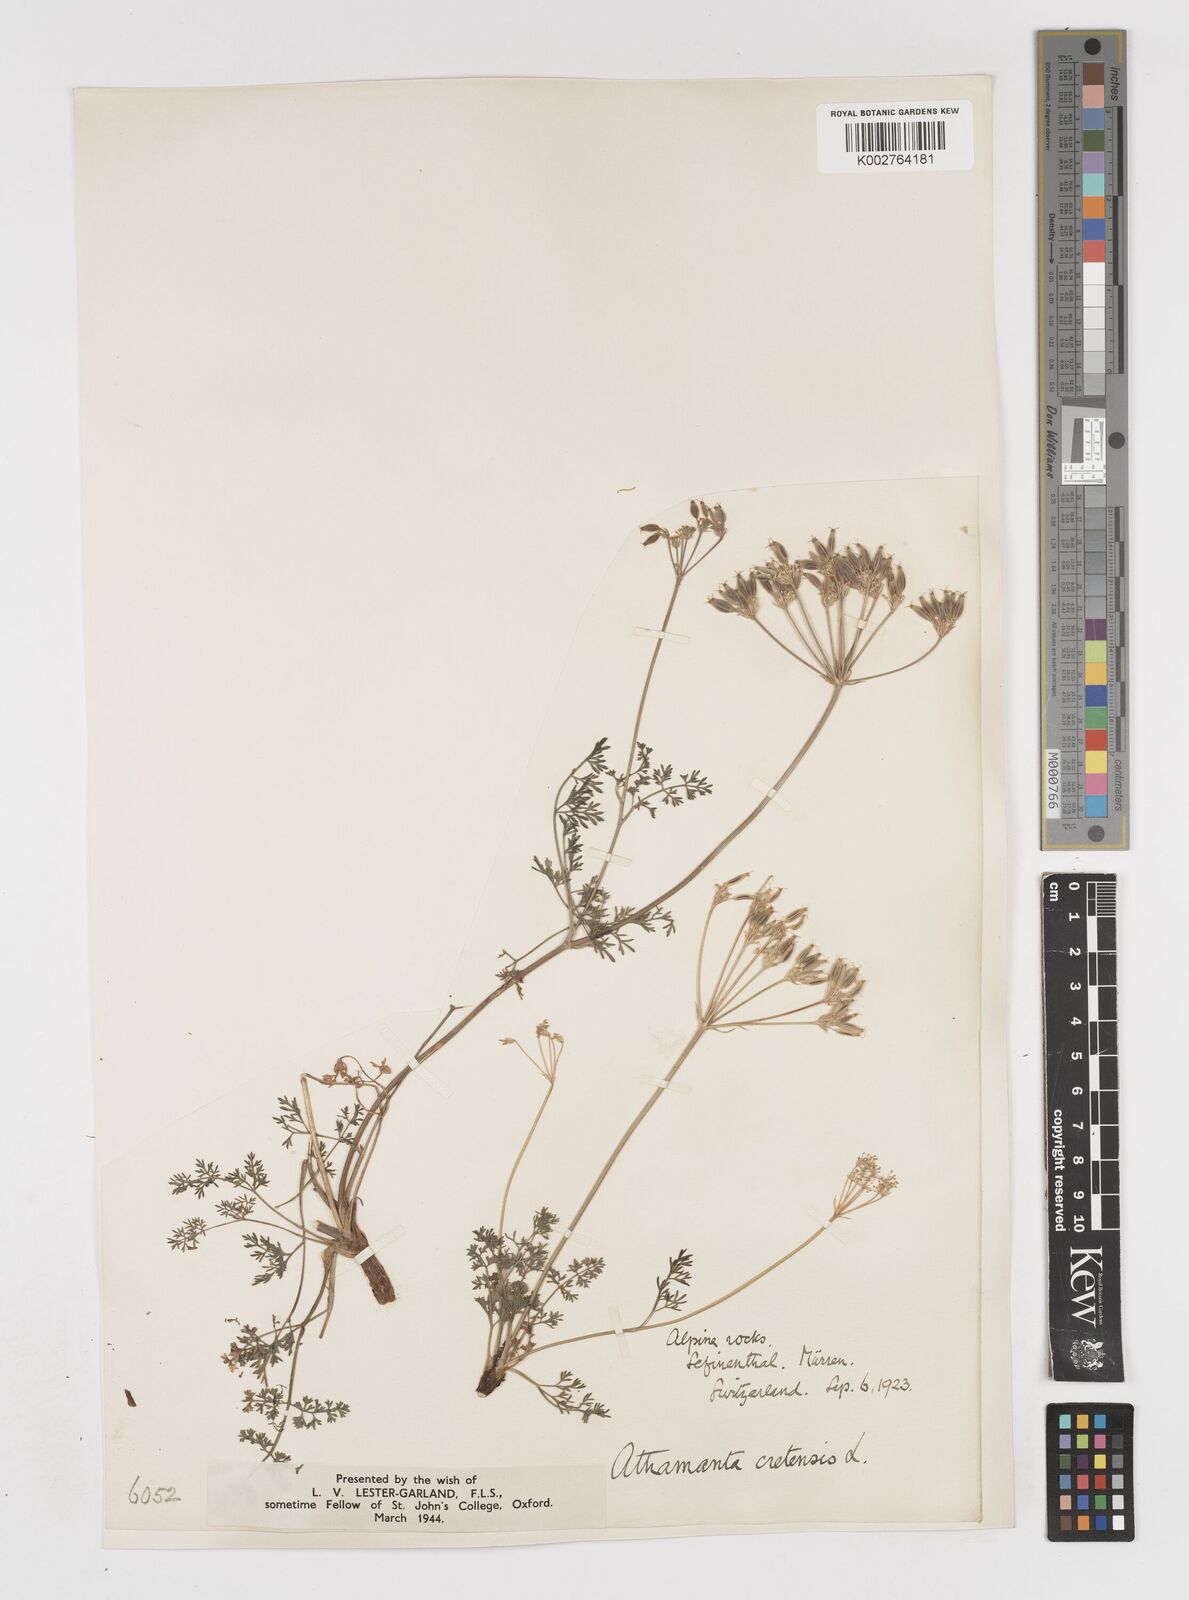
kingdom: Plantae
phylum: Tracheophyta
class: Magnoliopsida
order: Apiales
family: Apiaceae
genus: Athamanta
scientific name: Athamanta cretensis
